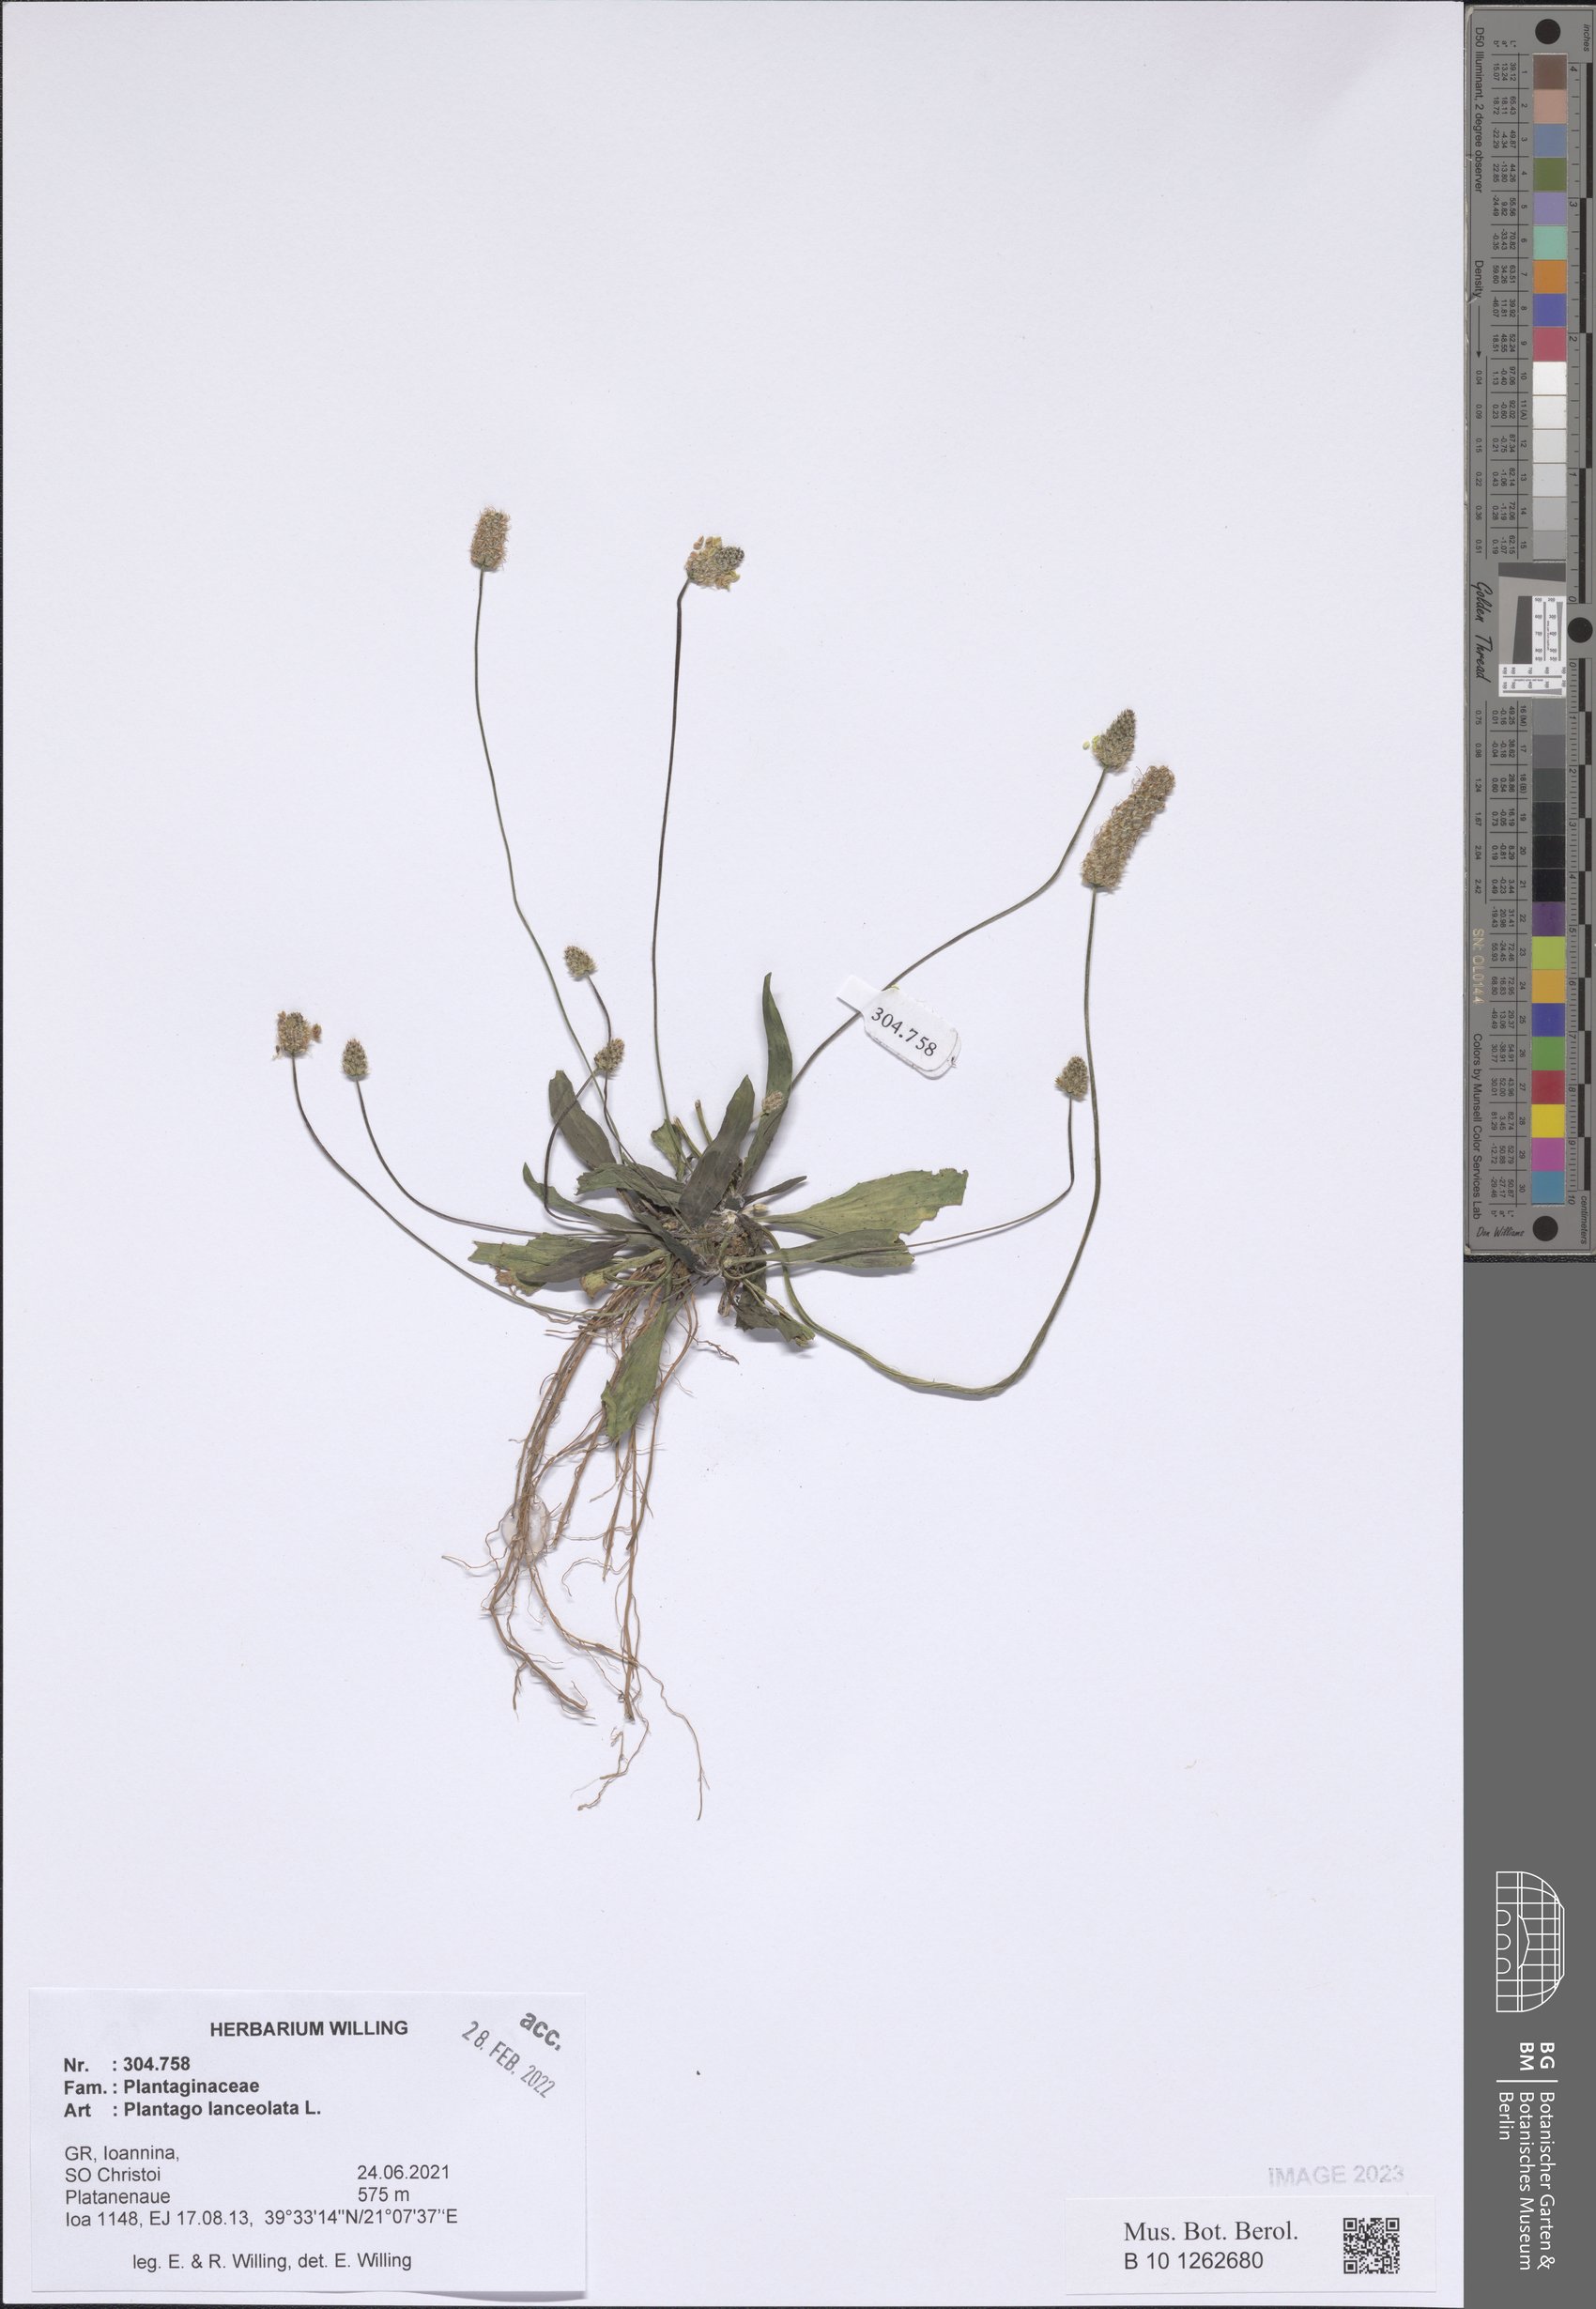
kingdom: Plantae
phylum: Tracheophyta
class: Magnoliopsida
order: Lamiales
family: Plantaginaceae
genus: Plantago
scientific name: Plantago lanceolata
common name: Ribwort plantain
